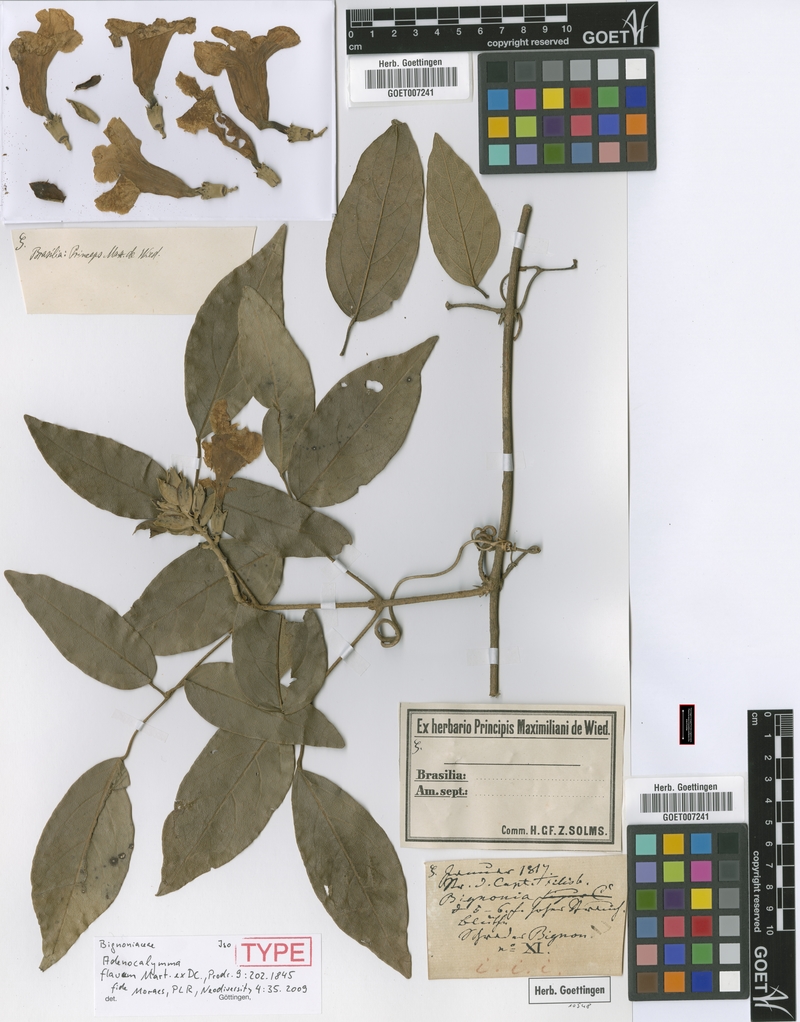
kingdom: Plantae
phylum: Tracheophyta
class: Magnoliopsida
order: Lamiales
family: Bignoniaceae
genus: Adenocalymma
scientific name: Adenocalymma flavum
